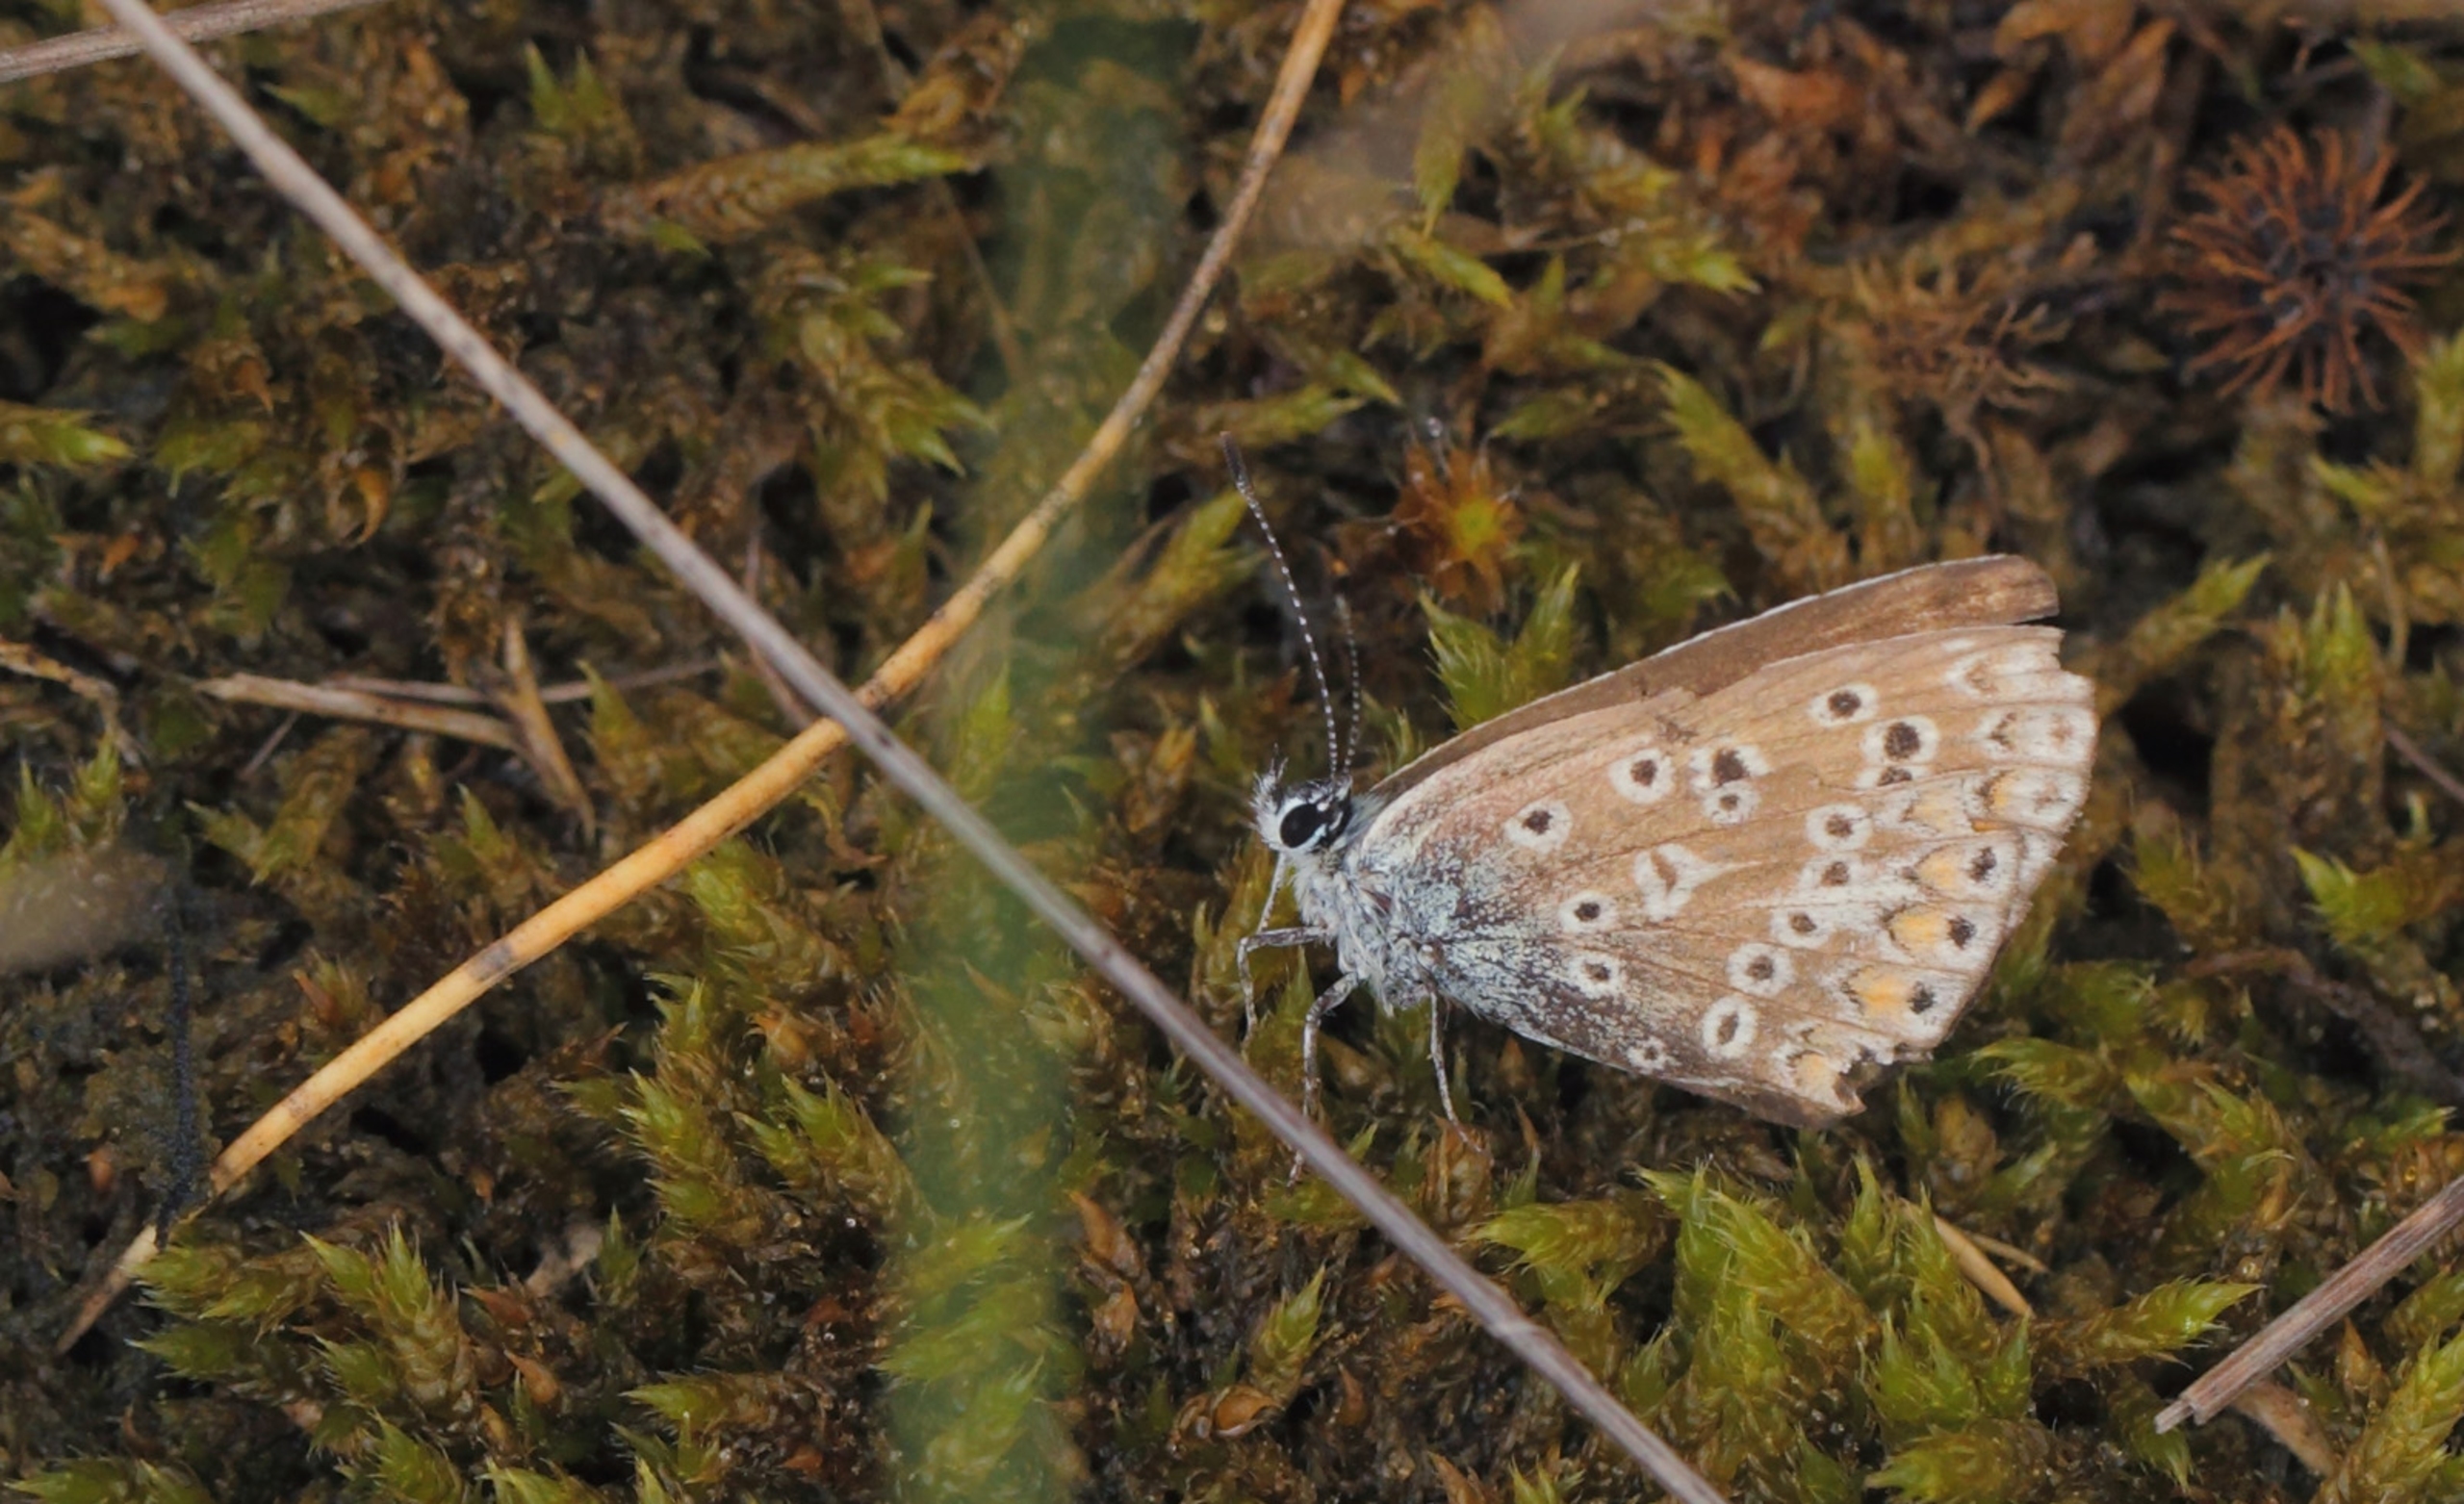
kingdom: Animalia
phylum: Arthropoda
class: Insecta
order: Lepidoptera
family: Lycaenidae
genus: Polyommatus
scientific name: Polyommatus icarus
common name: Almindelig blåfugl
